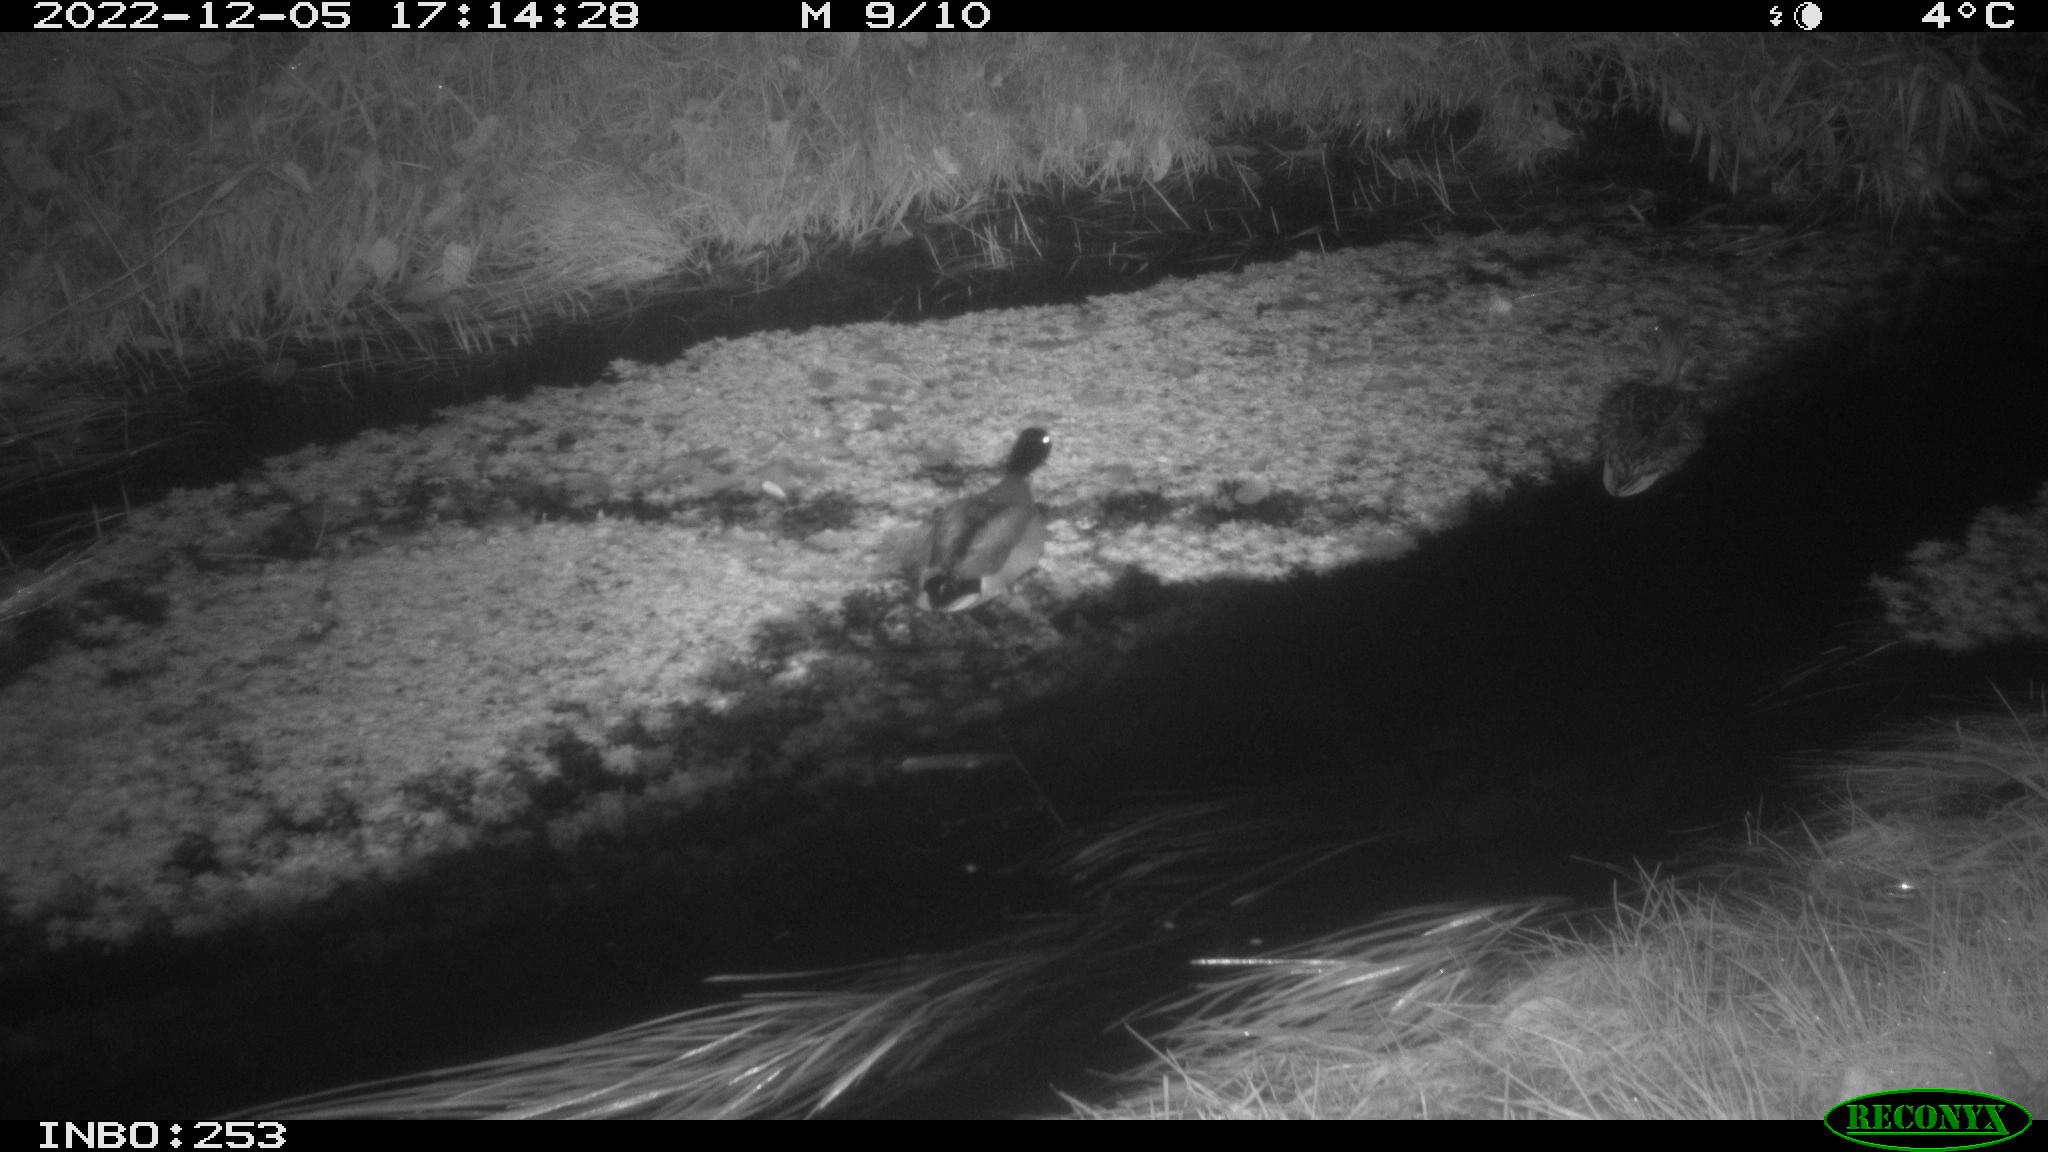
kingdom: Animalia
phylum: Chordata
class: Aves
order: Anseriformes
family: Anatidae
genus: Anas
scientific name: Anas
